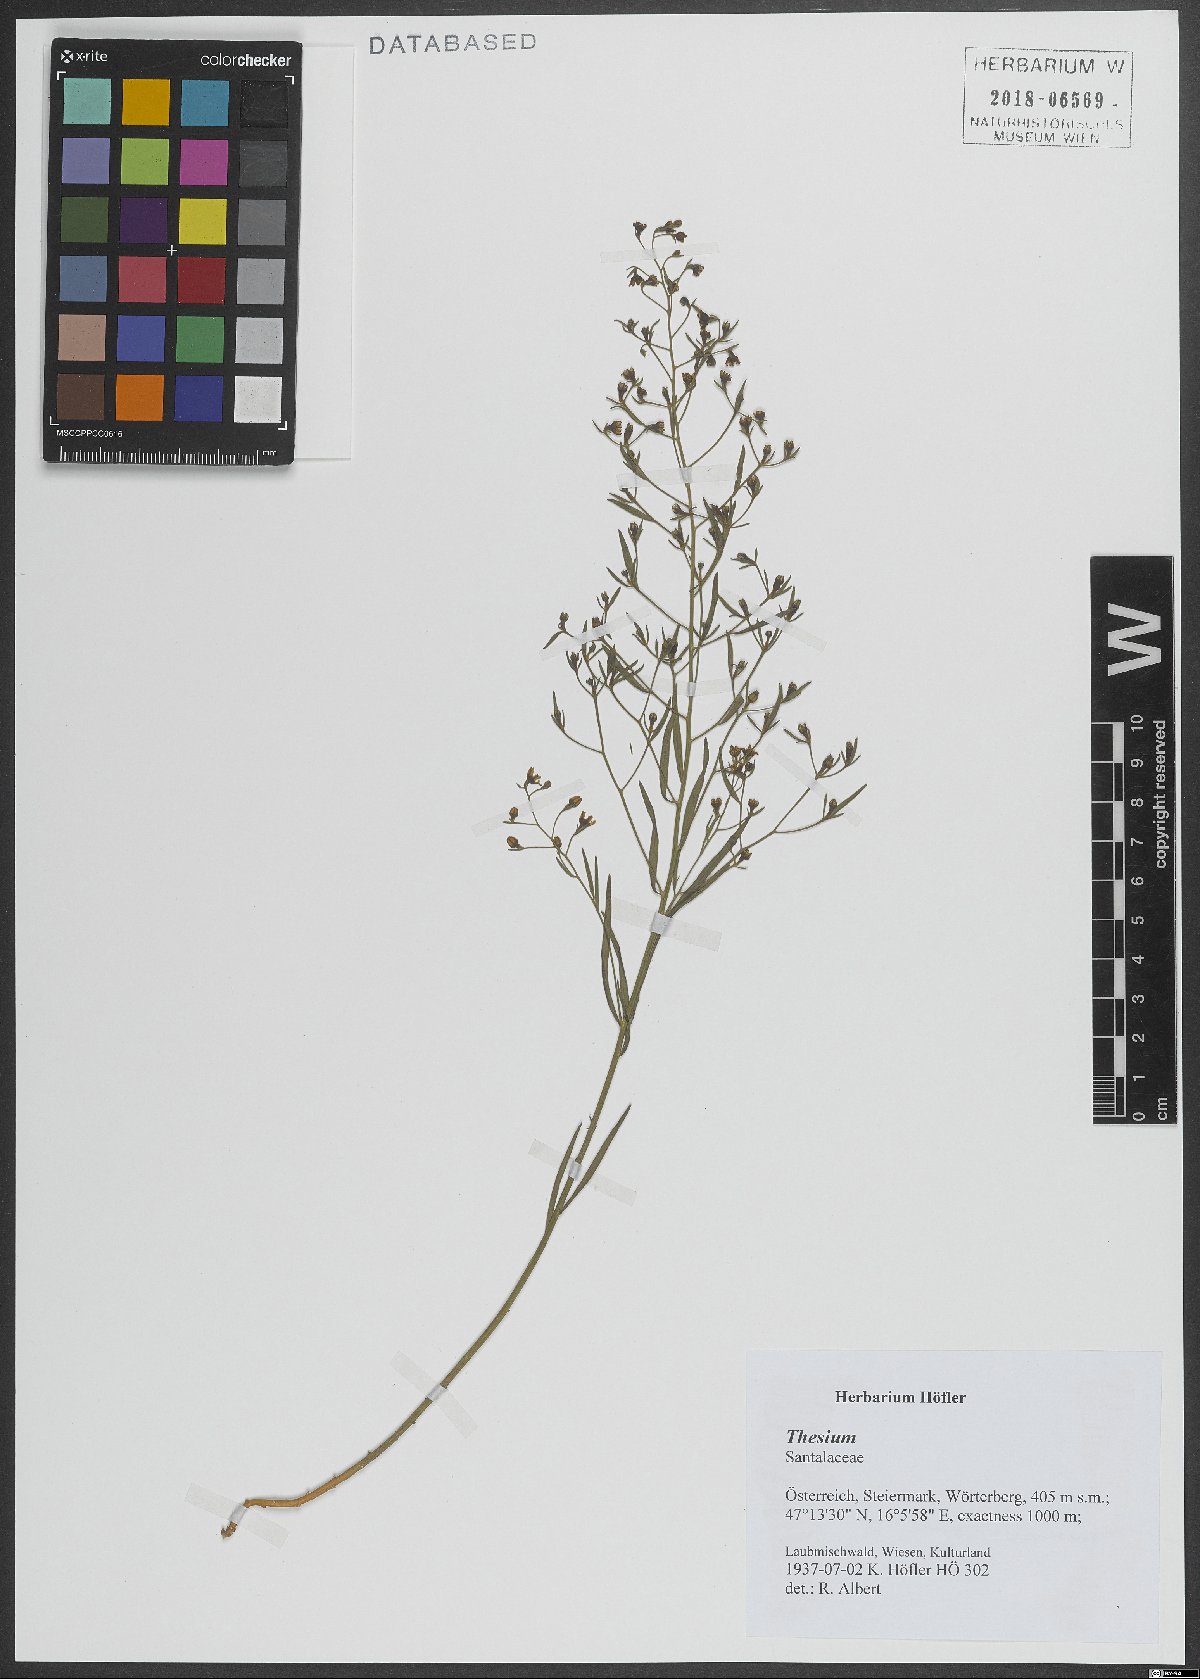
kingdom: Plantae
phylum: Tracheophyta
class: Magnoliopsida
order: Caryophyllales
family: Polygonaceae
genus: Polygonum
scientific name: Polygonum cognatum
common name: Indian knotgrass
